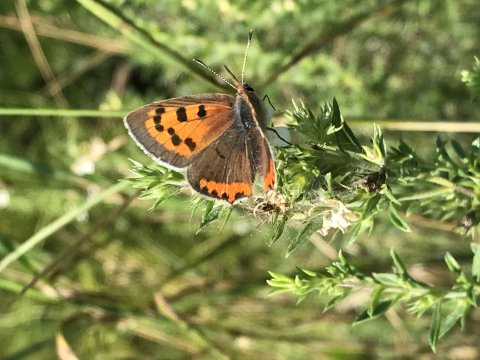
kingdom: Animalia
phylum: Arthropoda
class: Insecta
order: Lepidoptera
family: Lycaenidae
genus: Lycaena
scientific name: Lycaena phlaeas
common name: American Copper
